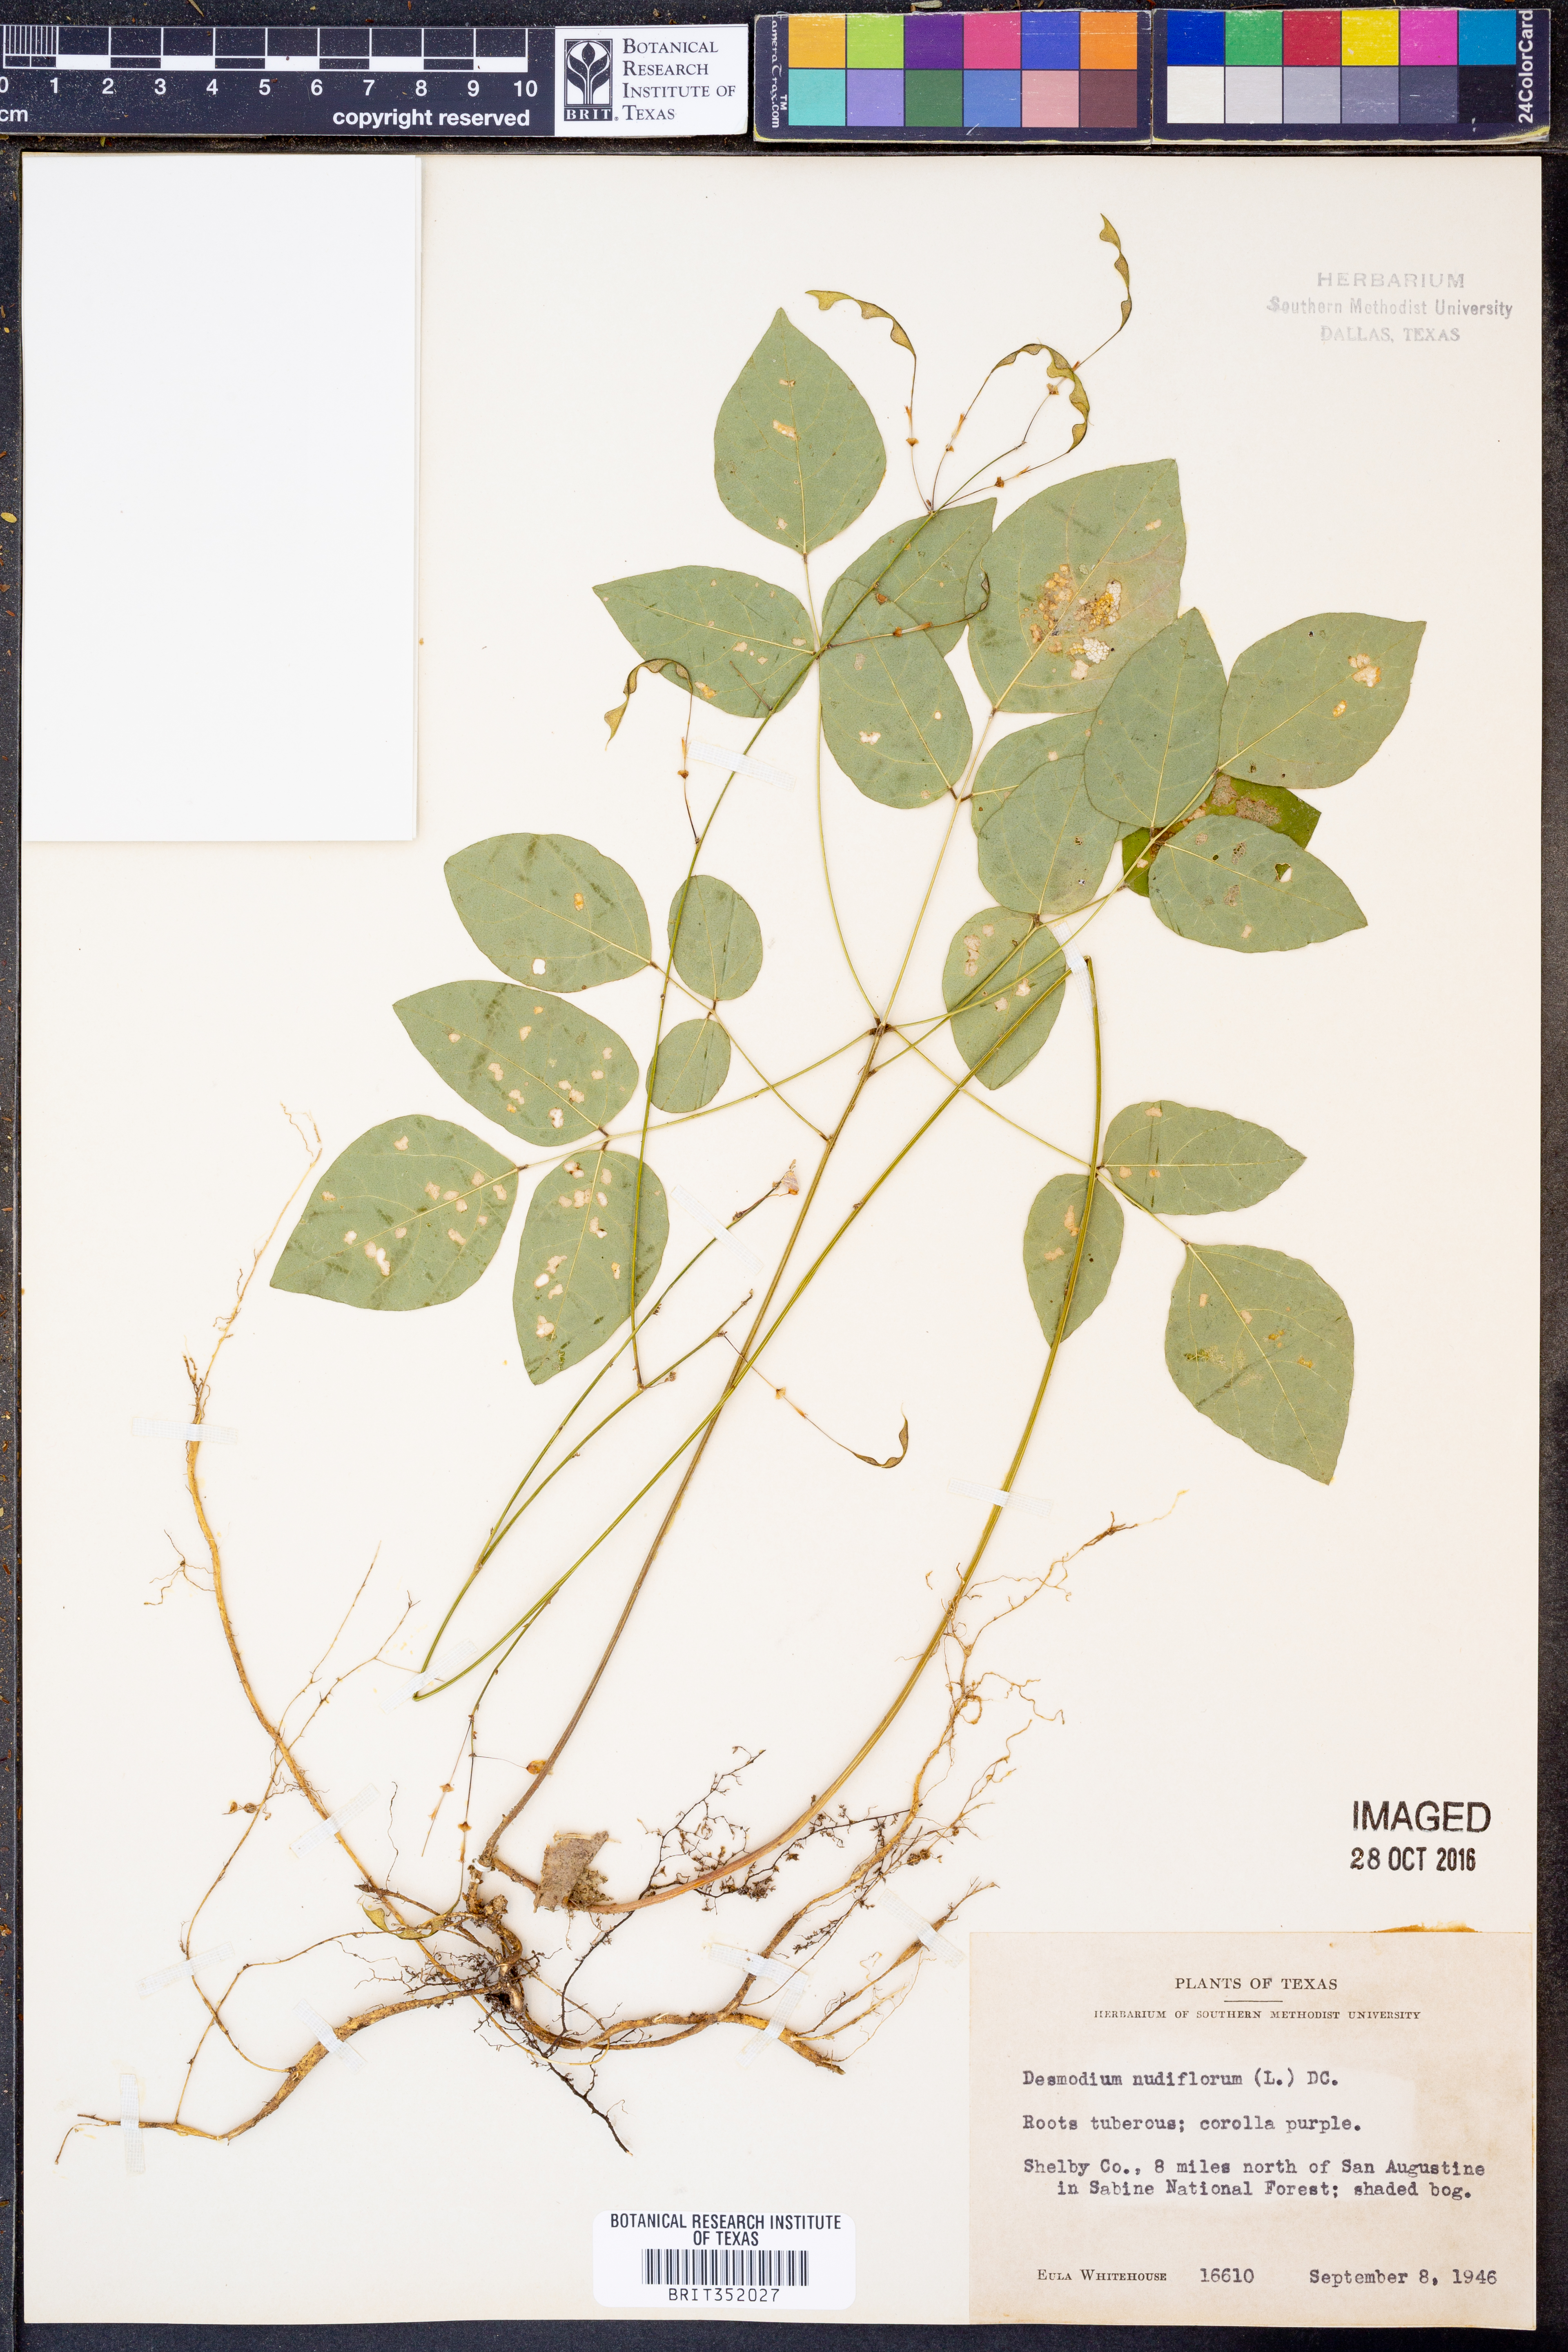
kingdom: Plantae
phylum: Tracheophyta
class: Magnoliopsida
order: Fabales
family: Fabaceae
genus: Hylodesmum
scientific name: Hylodesmum nudiflorum
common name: Bare-stemmed tick-trefoil
